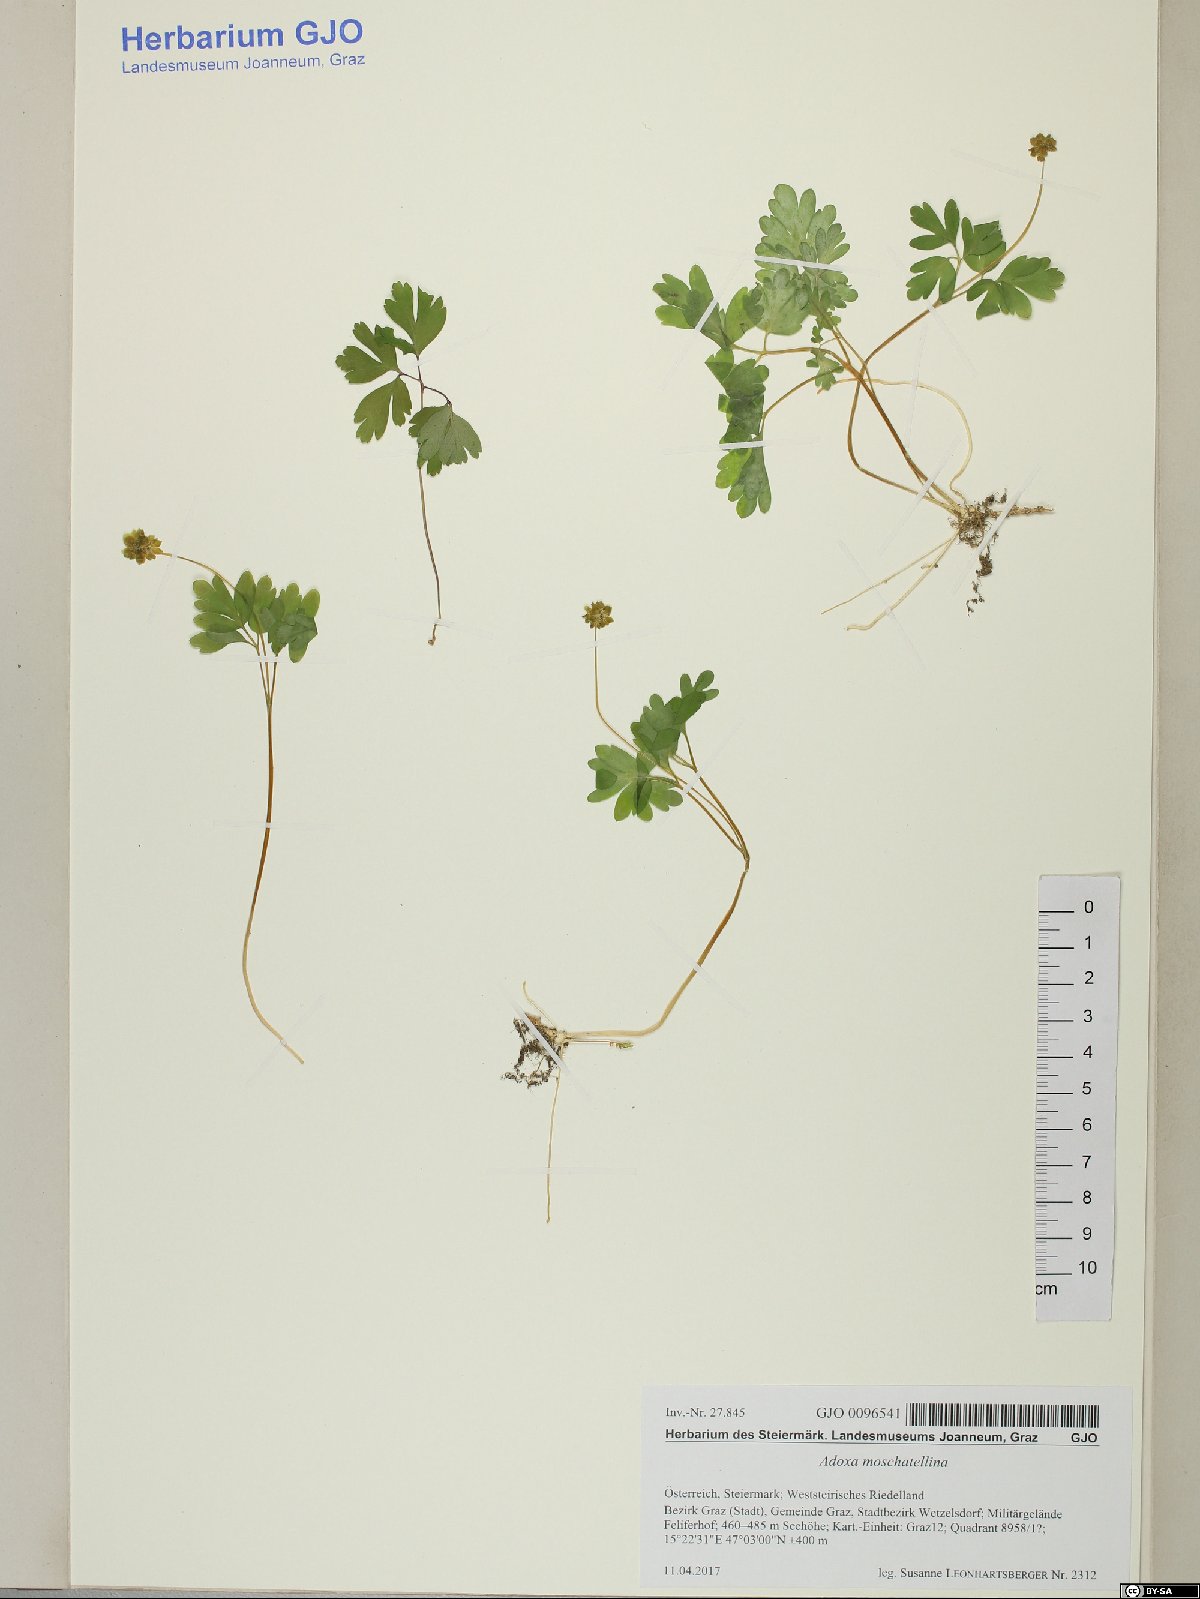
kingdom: Plantae
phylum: Tracheophyta
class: Magnoliopsida
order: Dipsacales
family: Viburnaceae
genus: Adoxa
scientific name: Adoxa moschatellina
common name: Moschatel
